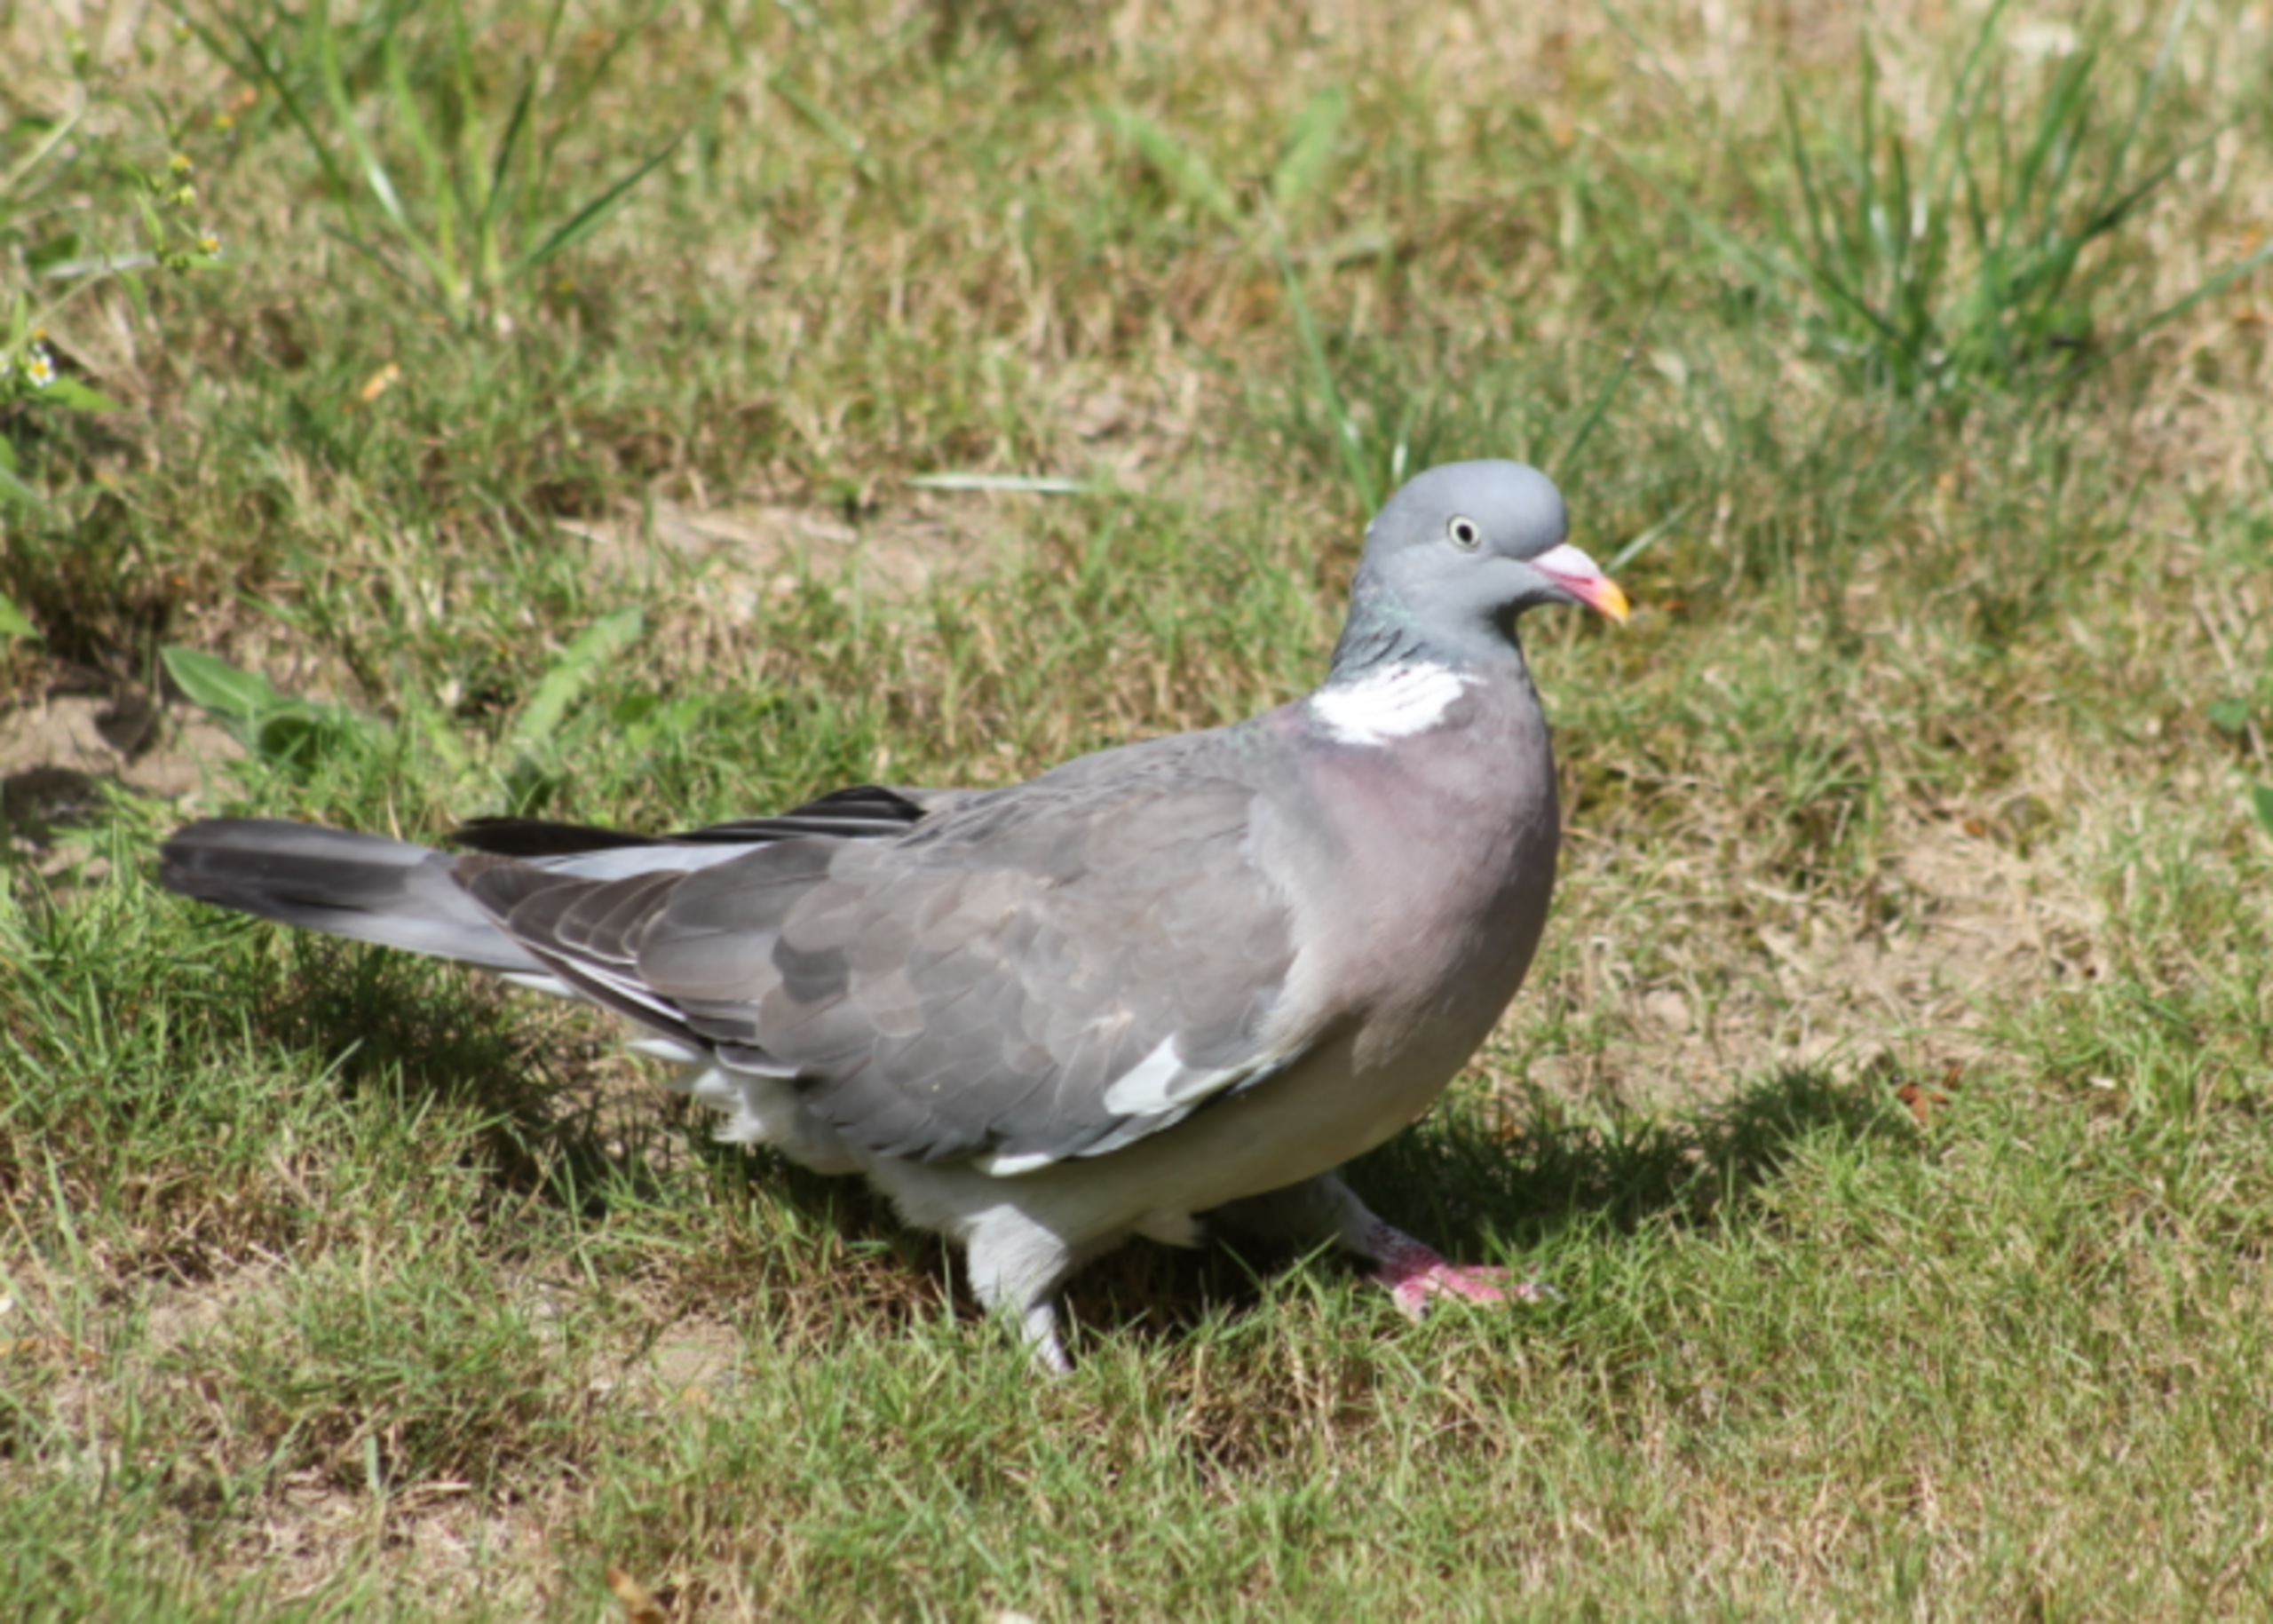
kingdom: Animalia
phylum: Chordata
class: Aves
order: Columbiformes
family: Columbidae
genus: Columba
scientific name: Columba palumbus
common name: Ringdue
